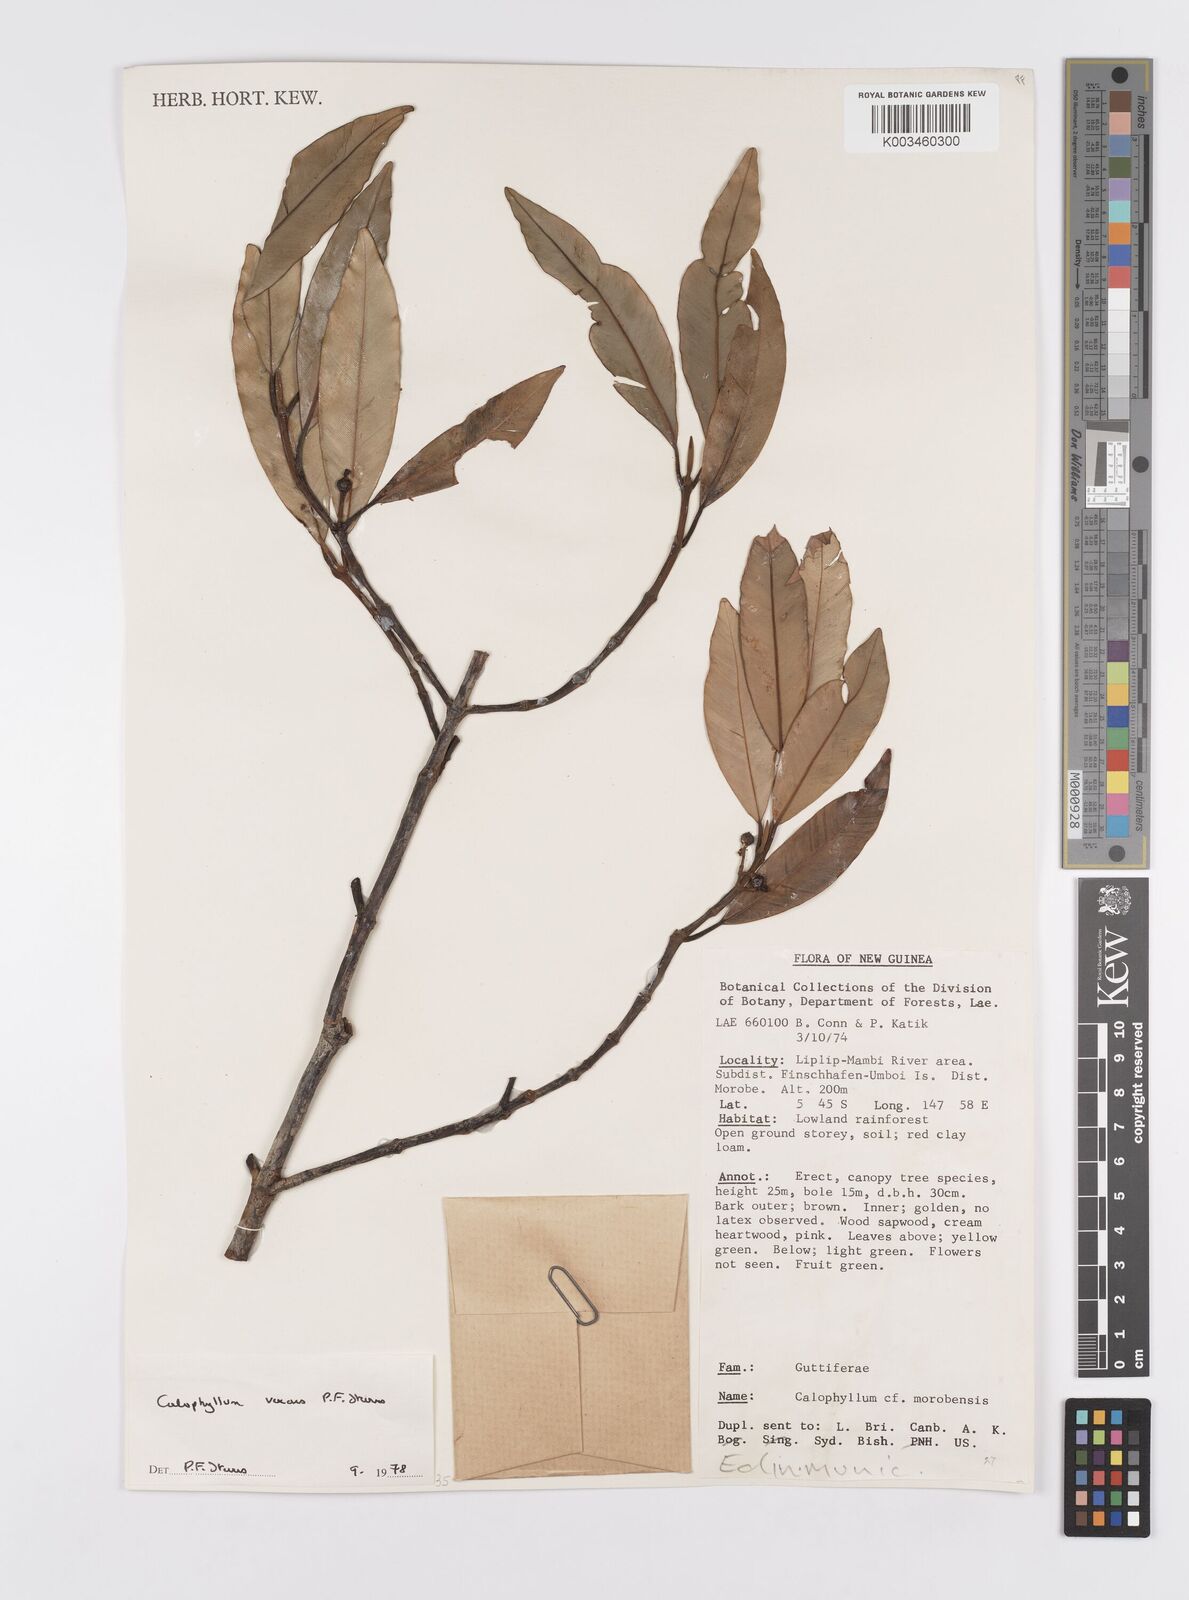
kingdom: Plantae
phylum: Tracheophyta
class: Magnoliopsida
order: Malpighiales
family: Calophyllaceae
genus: Calophyllum
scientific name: Calophyllum vexans
